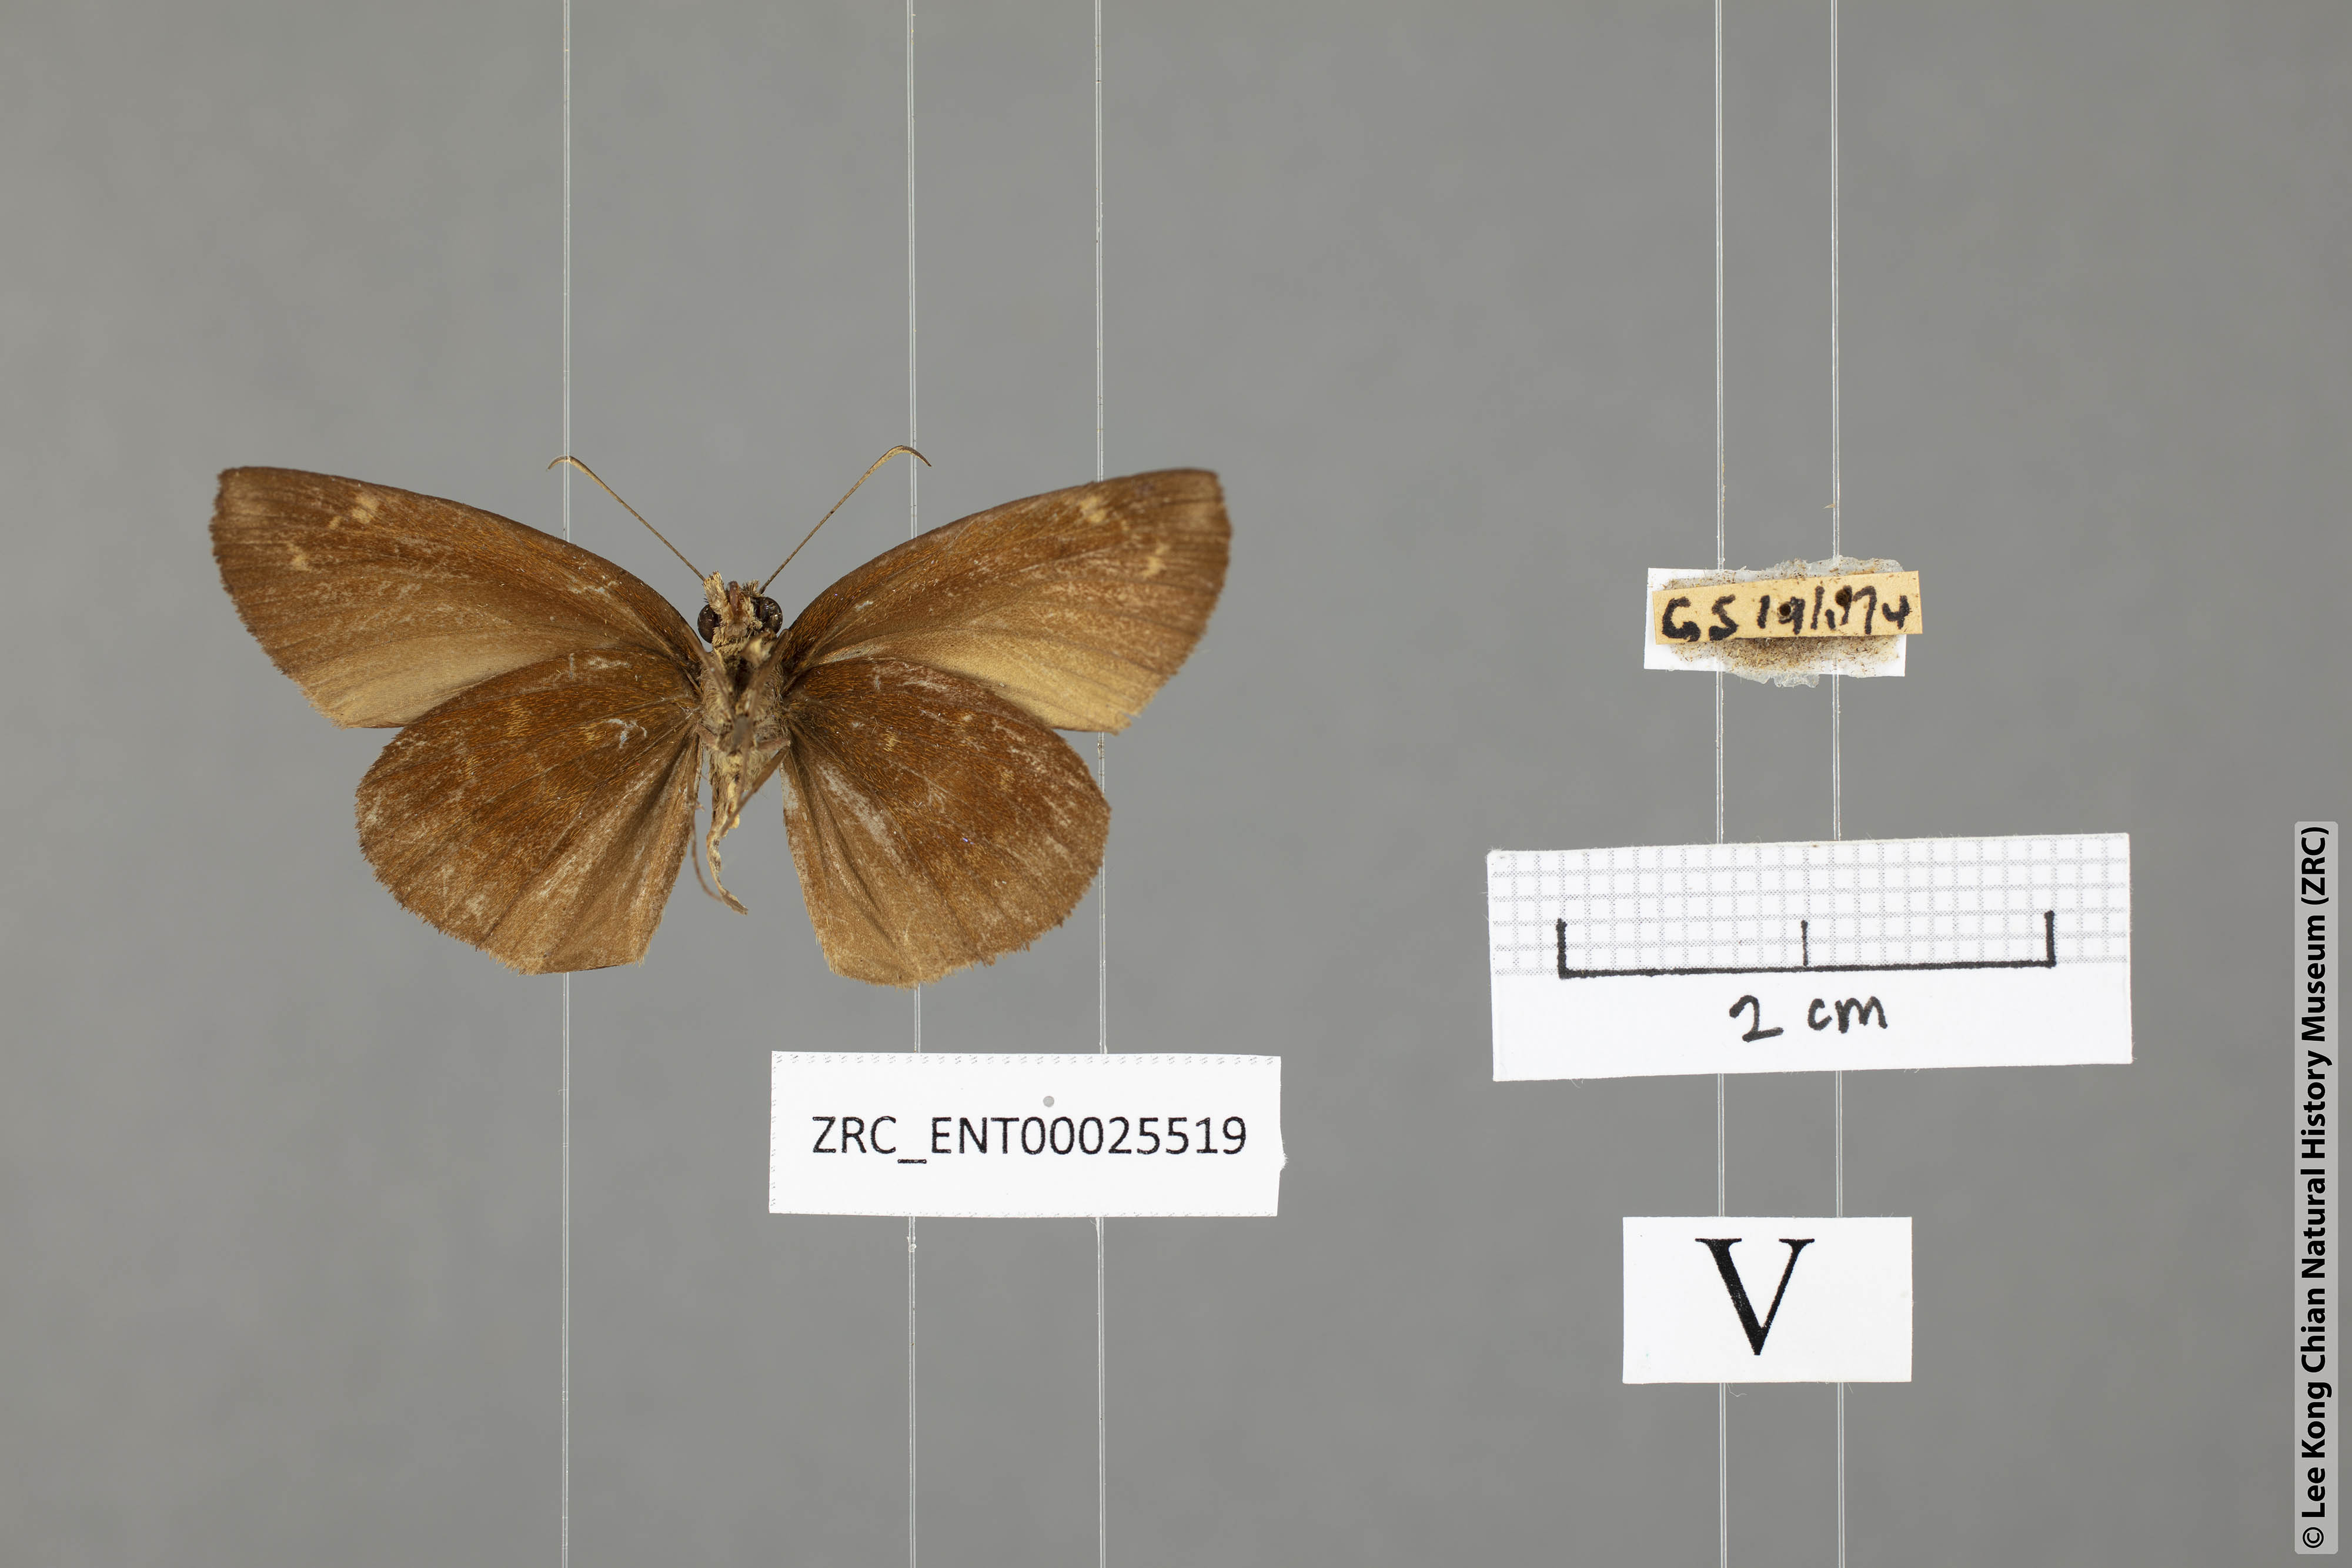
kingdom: Animalia
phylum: Arthropoda
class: Insecta
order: Lepidoptera
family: Hesperiidae
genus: Psolos
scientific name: Psolos fuligo
